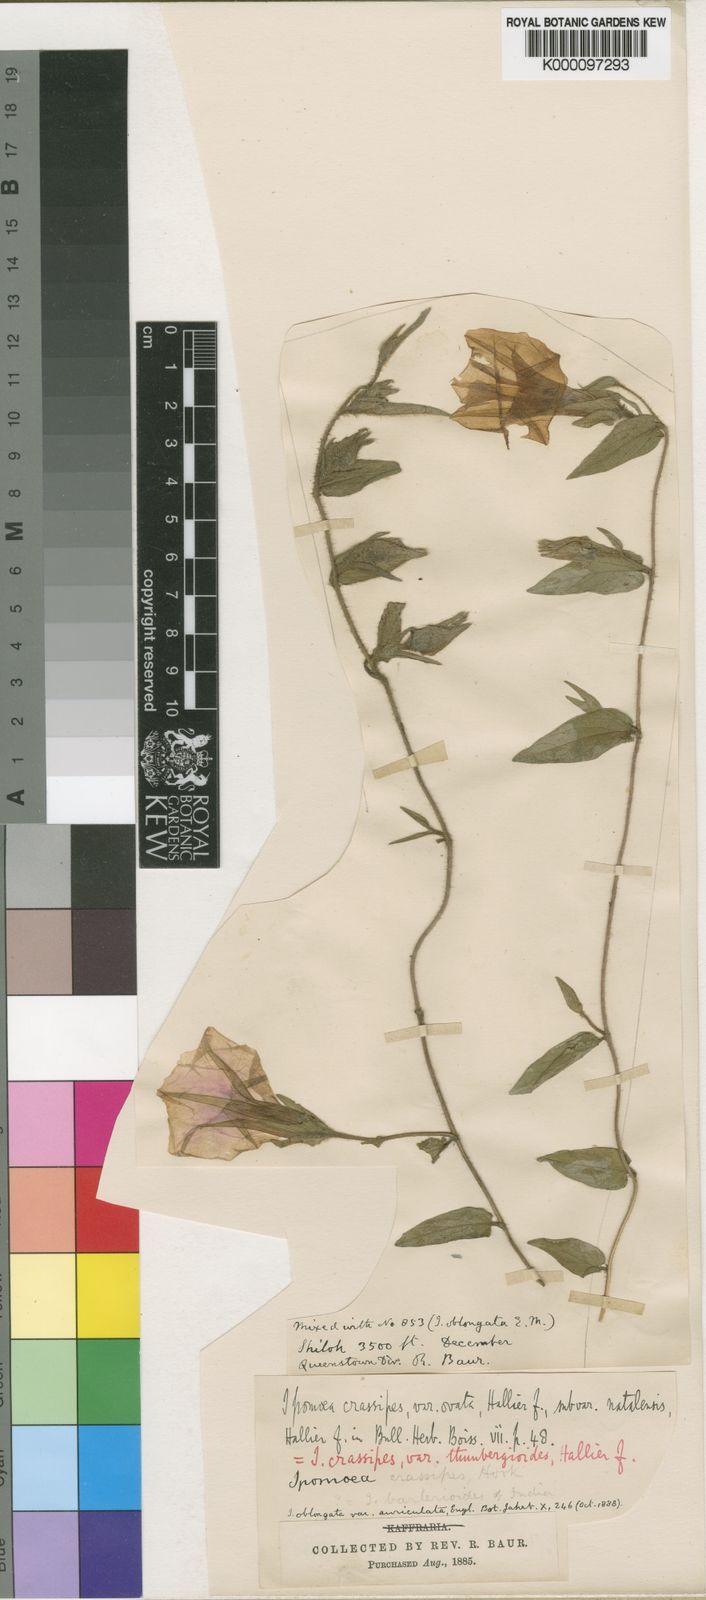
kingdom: Plantae
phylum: Tracheophyta
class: Magnoliopsida
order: Solanales
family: Convolvulaceae
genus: Ipomoea
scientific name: Ipomoea crassipes
